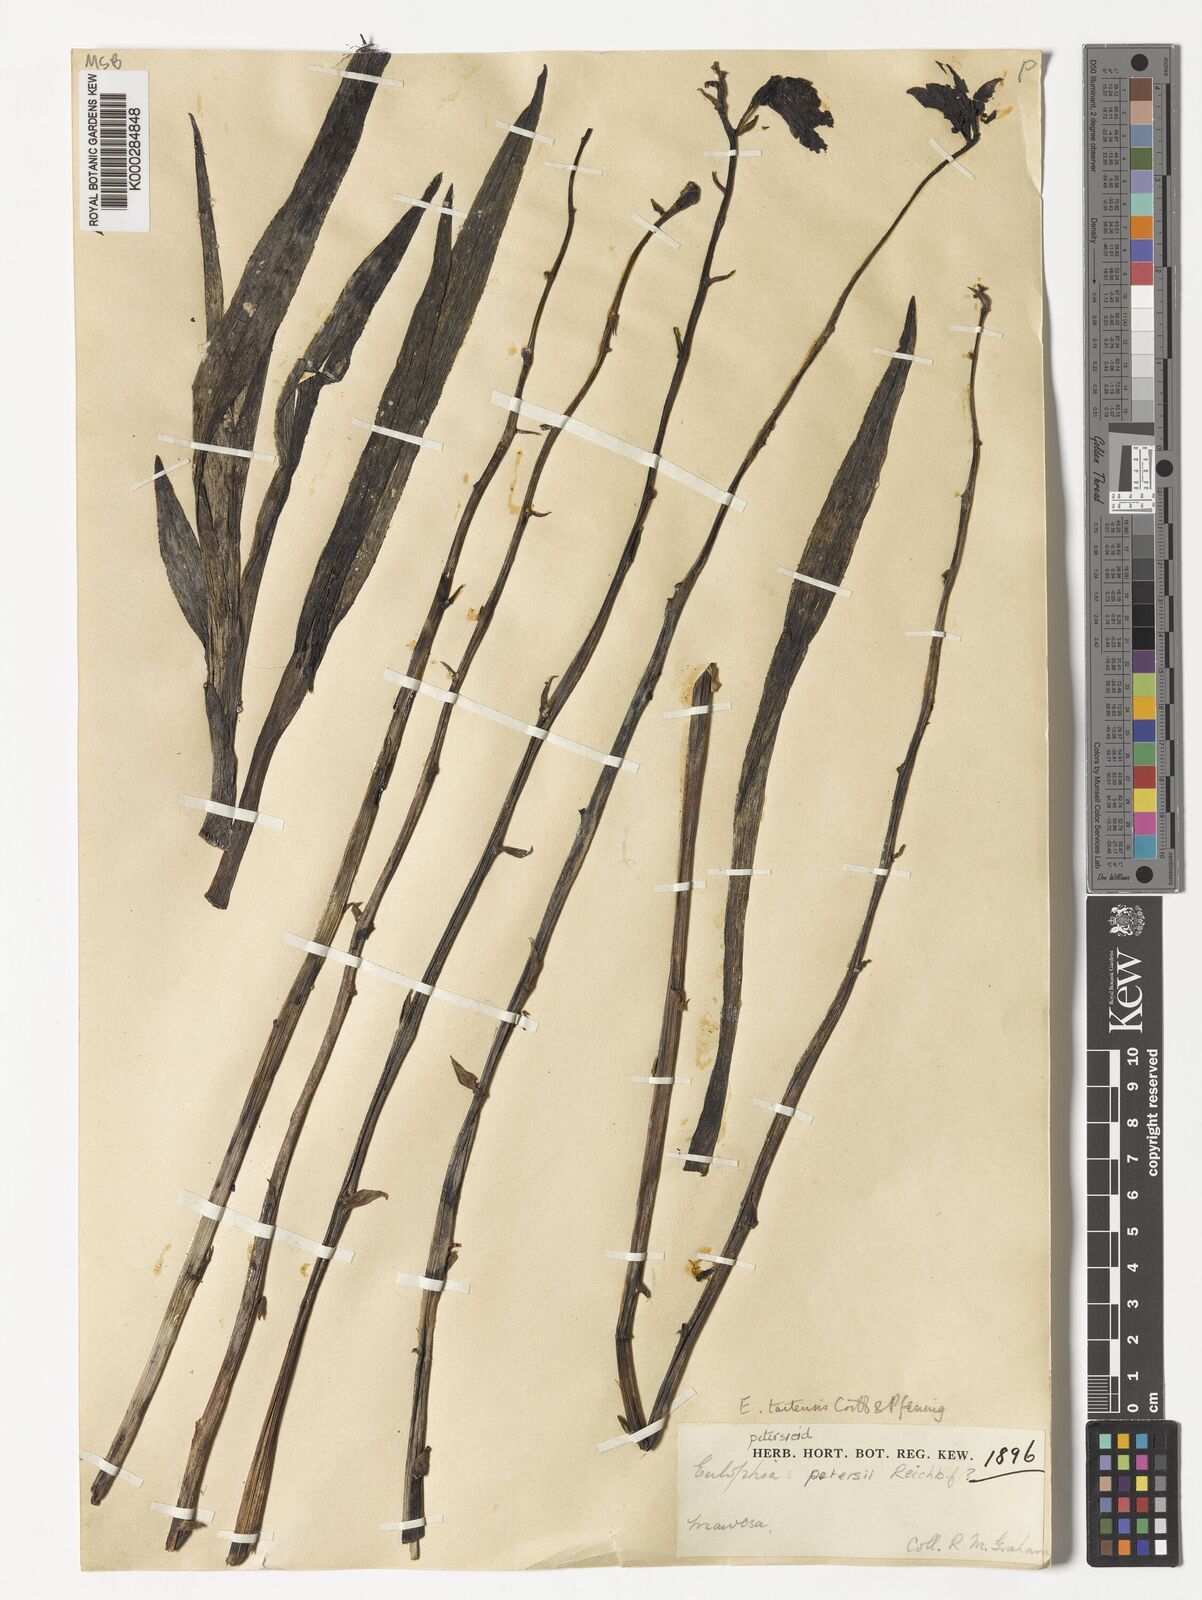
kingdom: Plantae
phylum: Tracheophyta
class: Liliopsida
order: Asparagales
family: Orchidaceae
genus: Eulophia
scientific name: Eulophia taitensis
